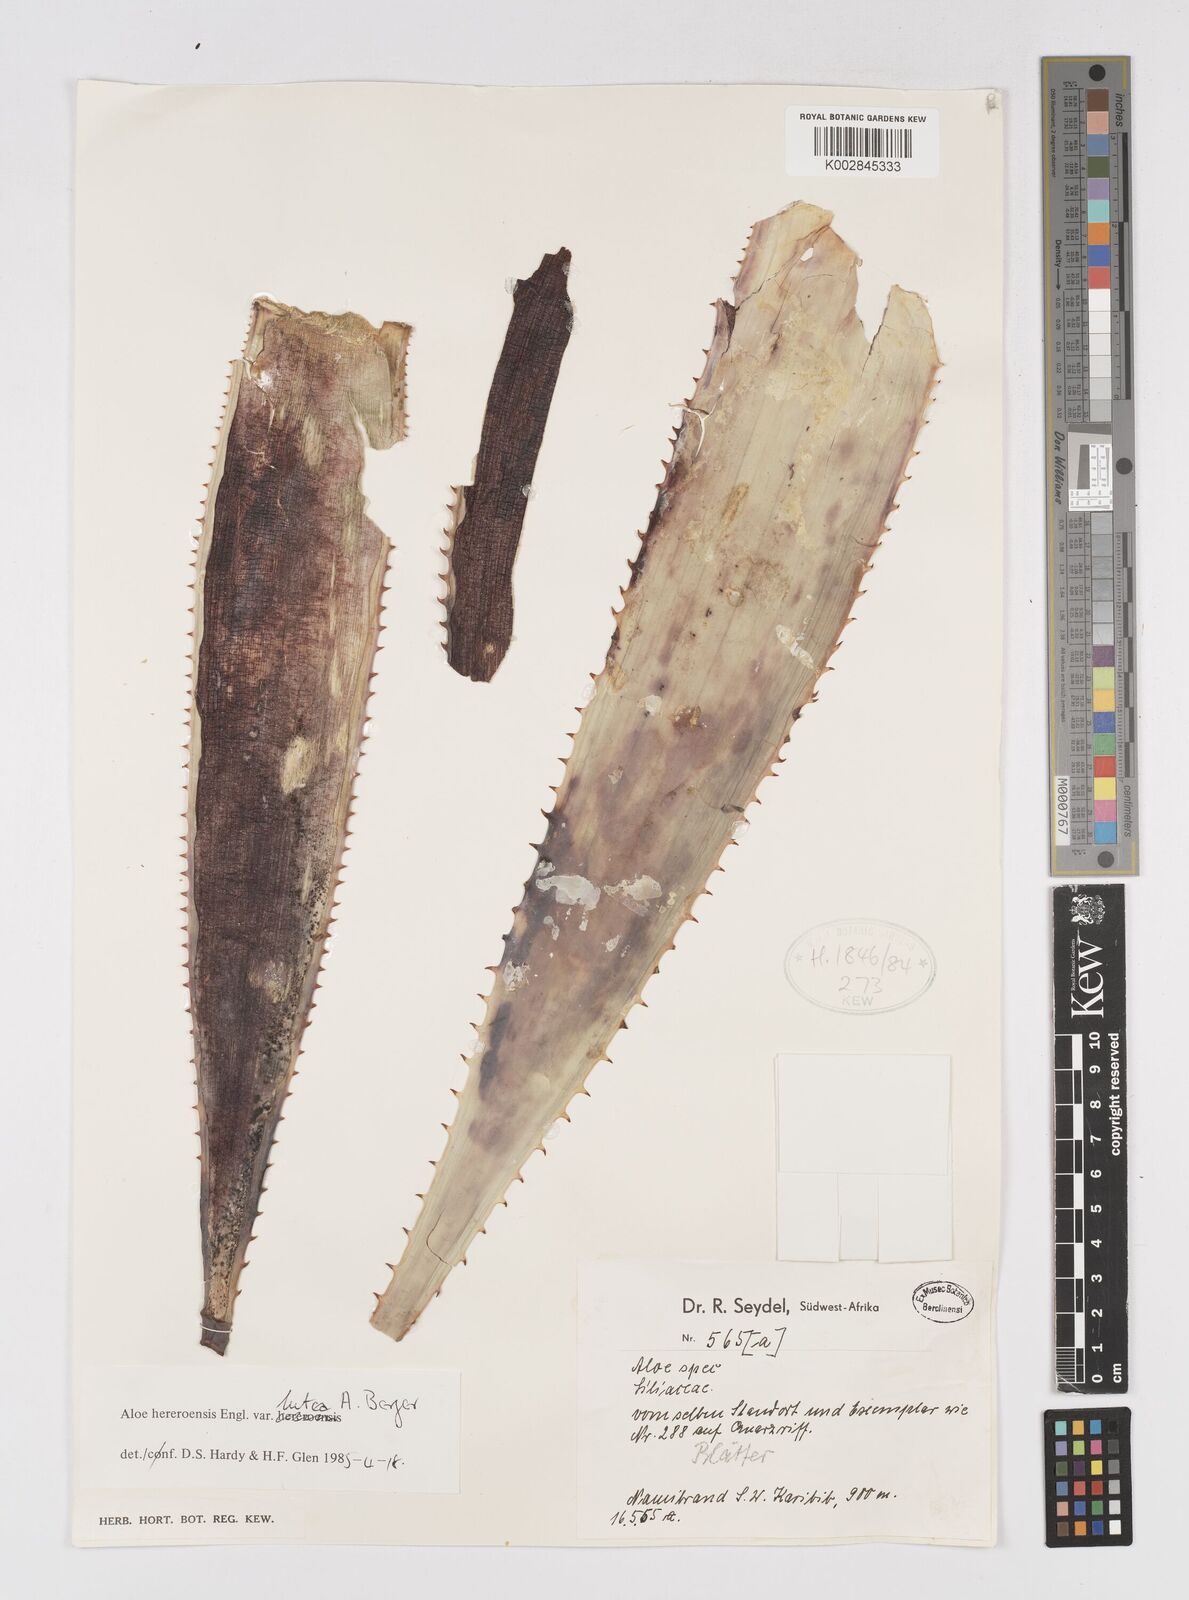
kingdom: Plantae
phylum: Tracheophyta
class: Liliopsida
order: Asparagales
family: Asphodelaceae
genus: Aloe
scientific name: Aloe hereroensis
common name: Herero aloe
